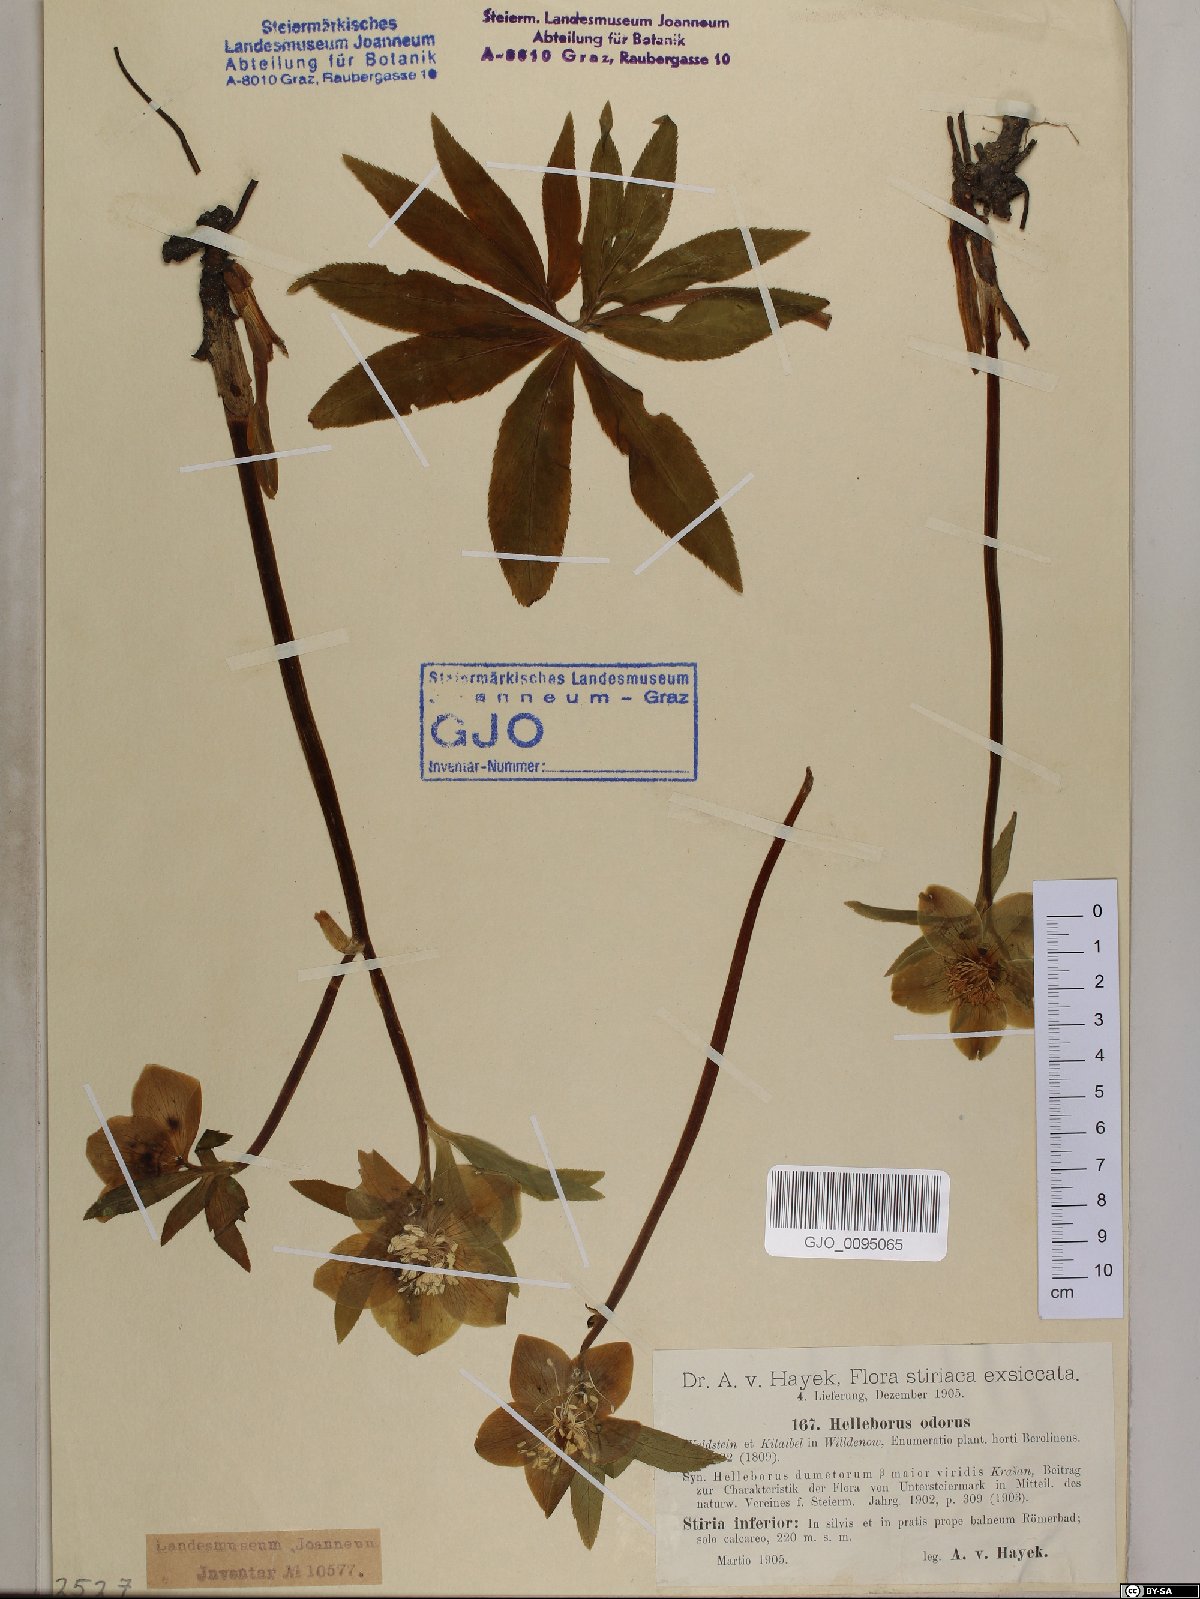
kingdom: Plantae
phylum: Tracheophyta
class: Magnoliopsida
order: Ranunculales
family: Ranunculaceae
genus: Helleborus
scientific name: Helleborus odorus
